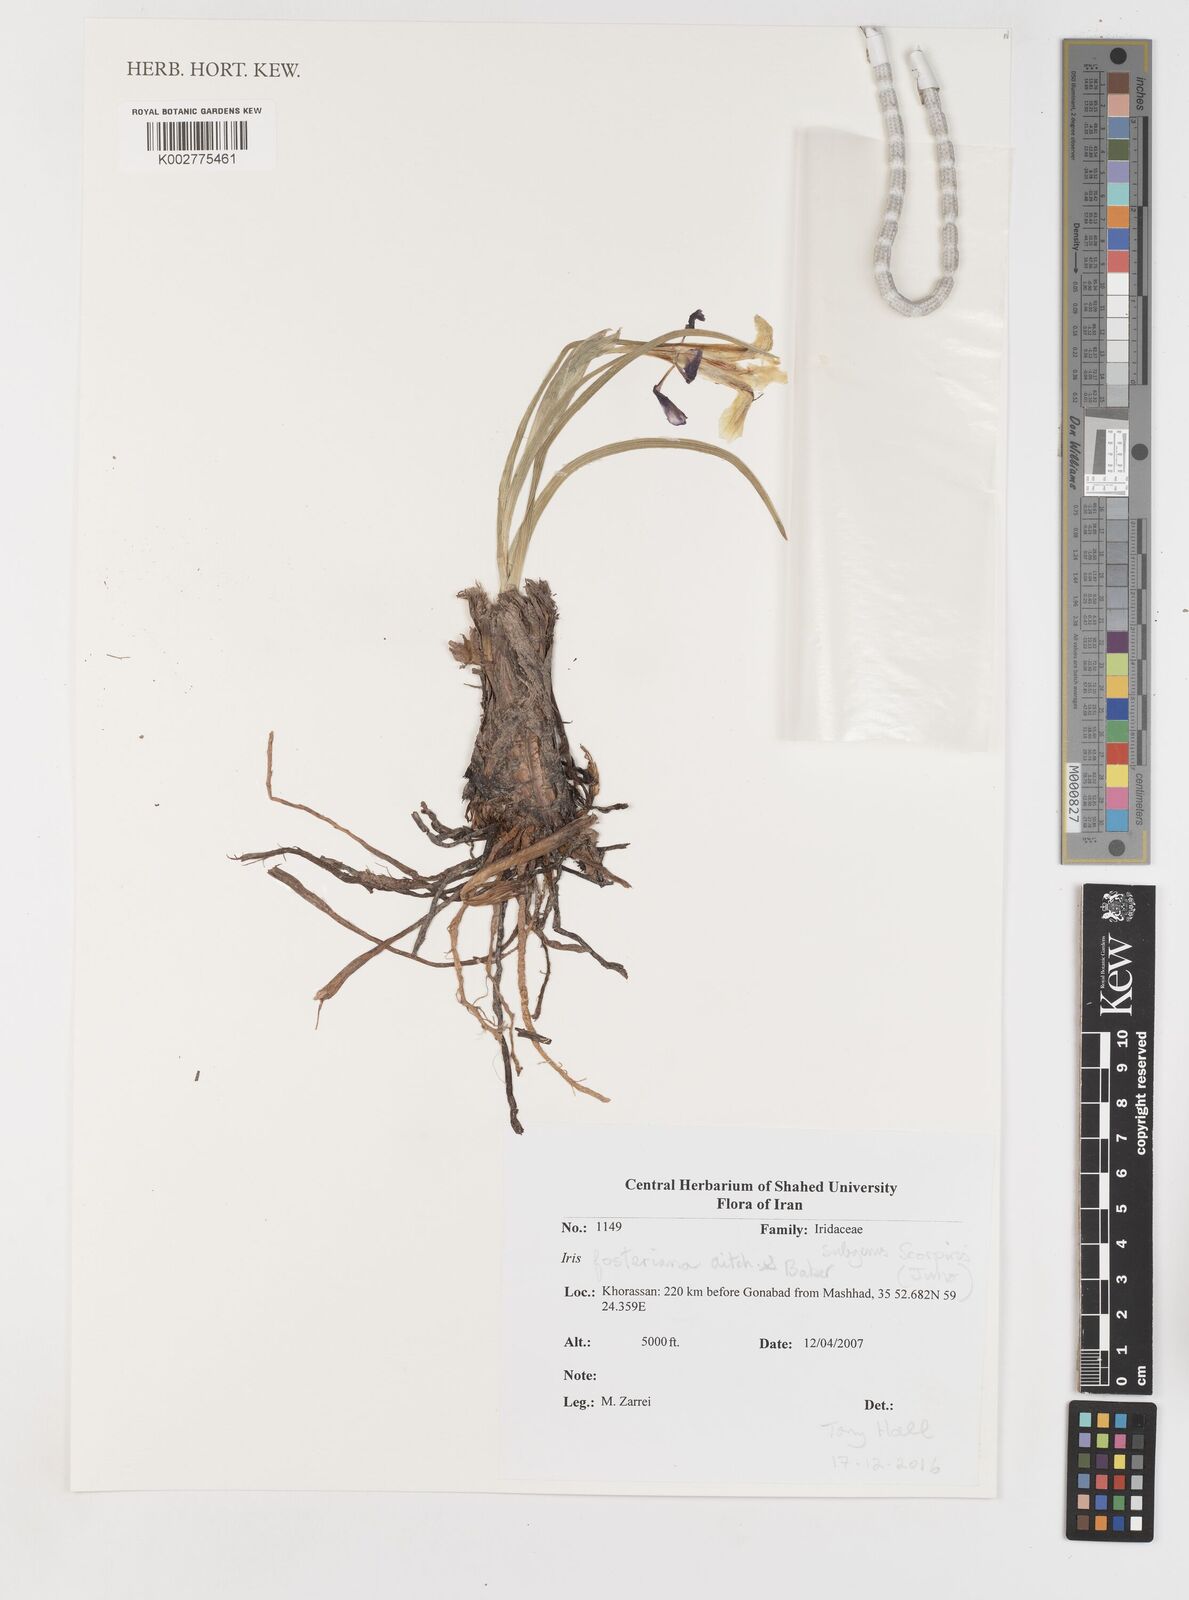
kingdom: Plantae
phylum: Tracheophyta
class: Liliopsida
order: Asparagales
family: Iridaceae
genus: Iris
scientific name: Iris fosteriana
